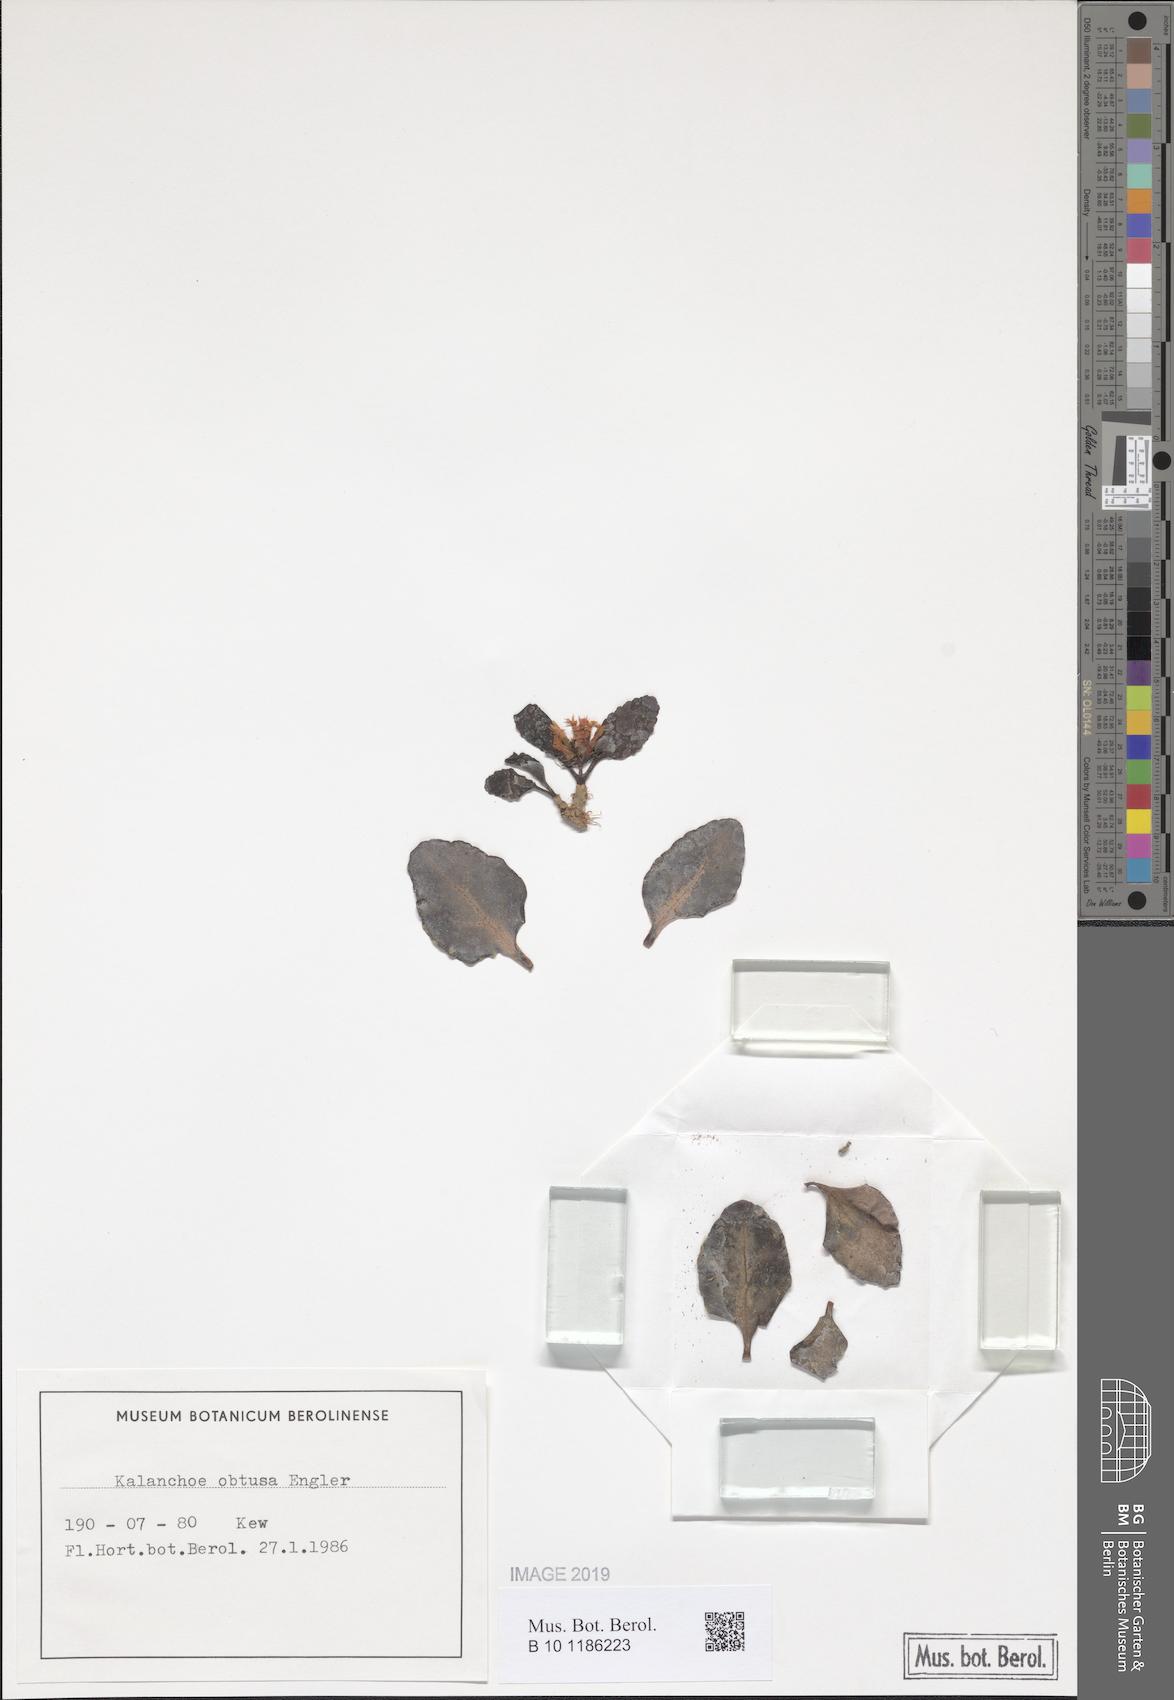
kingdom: Plantae
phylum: Tracheophyta
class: Magnoliopsida
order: Saxifragales
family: Crassulaceae
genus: Kalanchoe
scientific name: Kalanchoe obtusa
